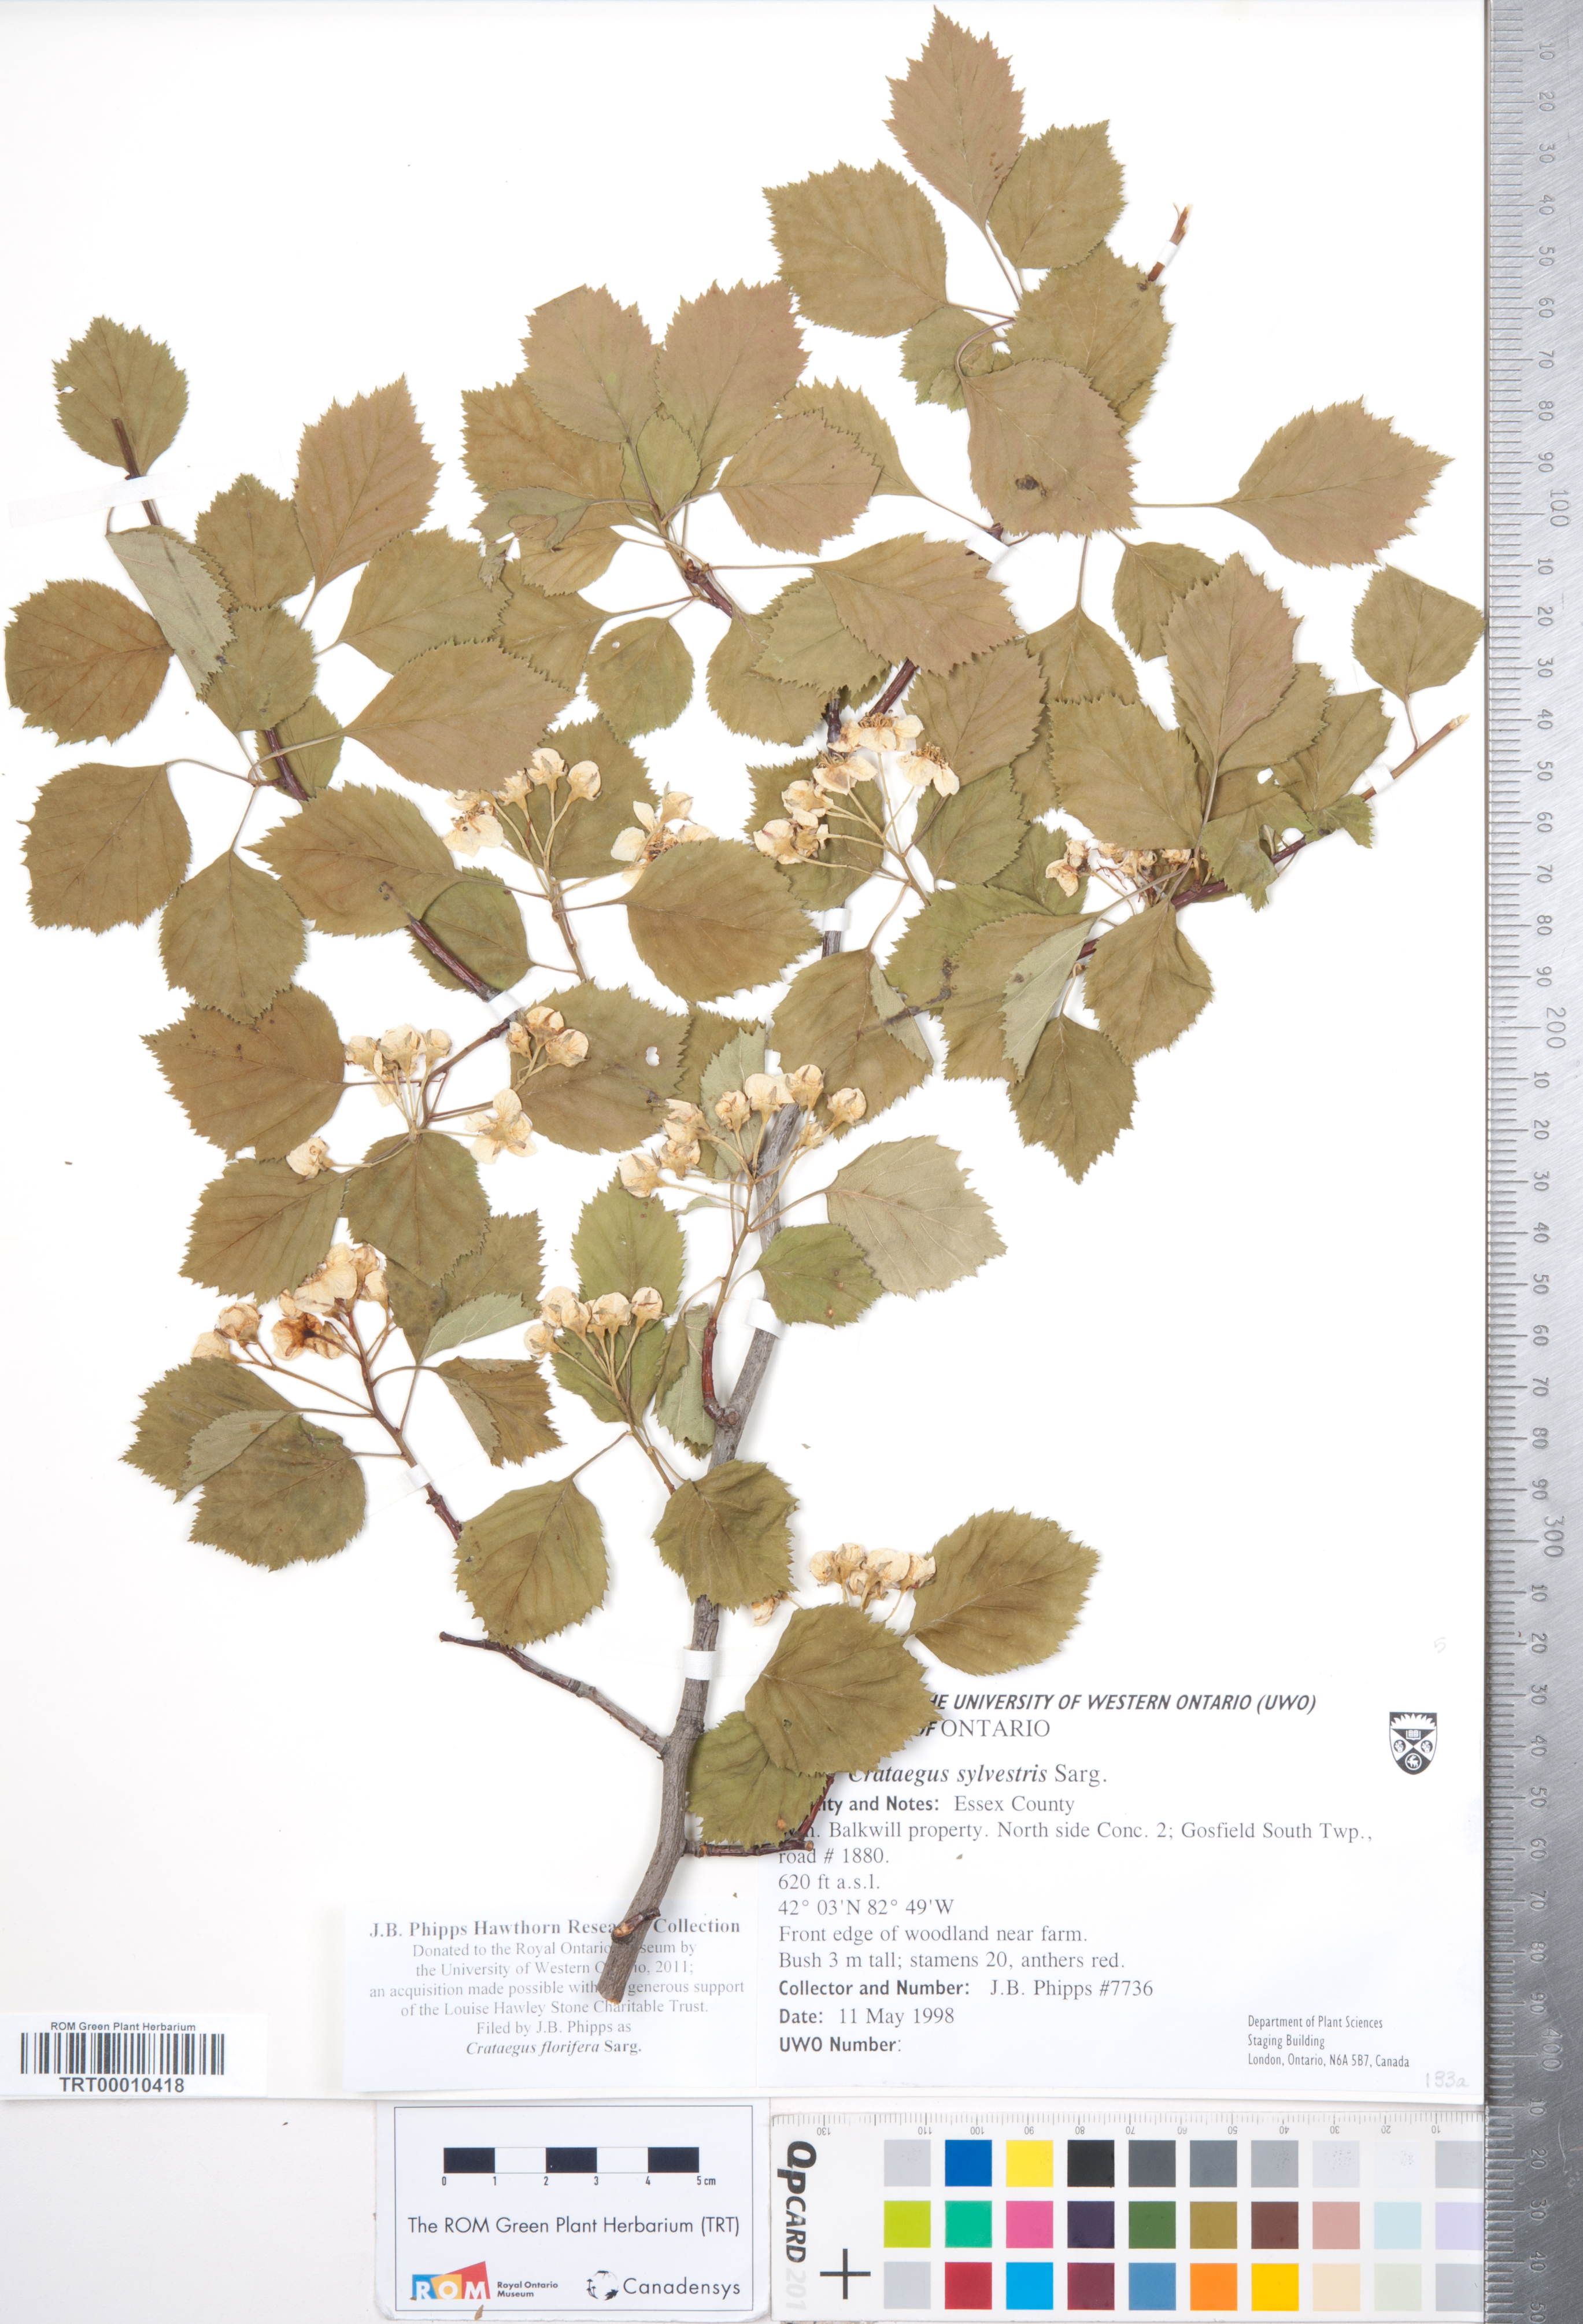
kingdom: Plantae
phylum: Tracheophyta
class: Magnoliopsida
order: Rosales
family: Rosaceae
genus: Crataegus
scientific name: Crataegus florifera
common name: Woodland hawthorn
